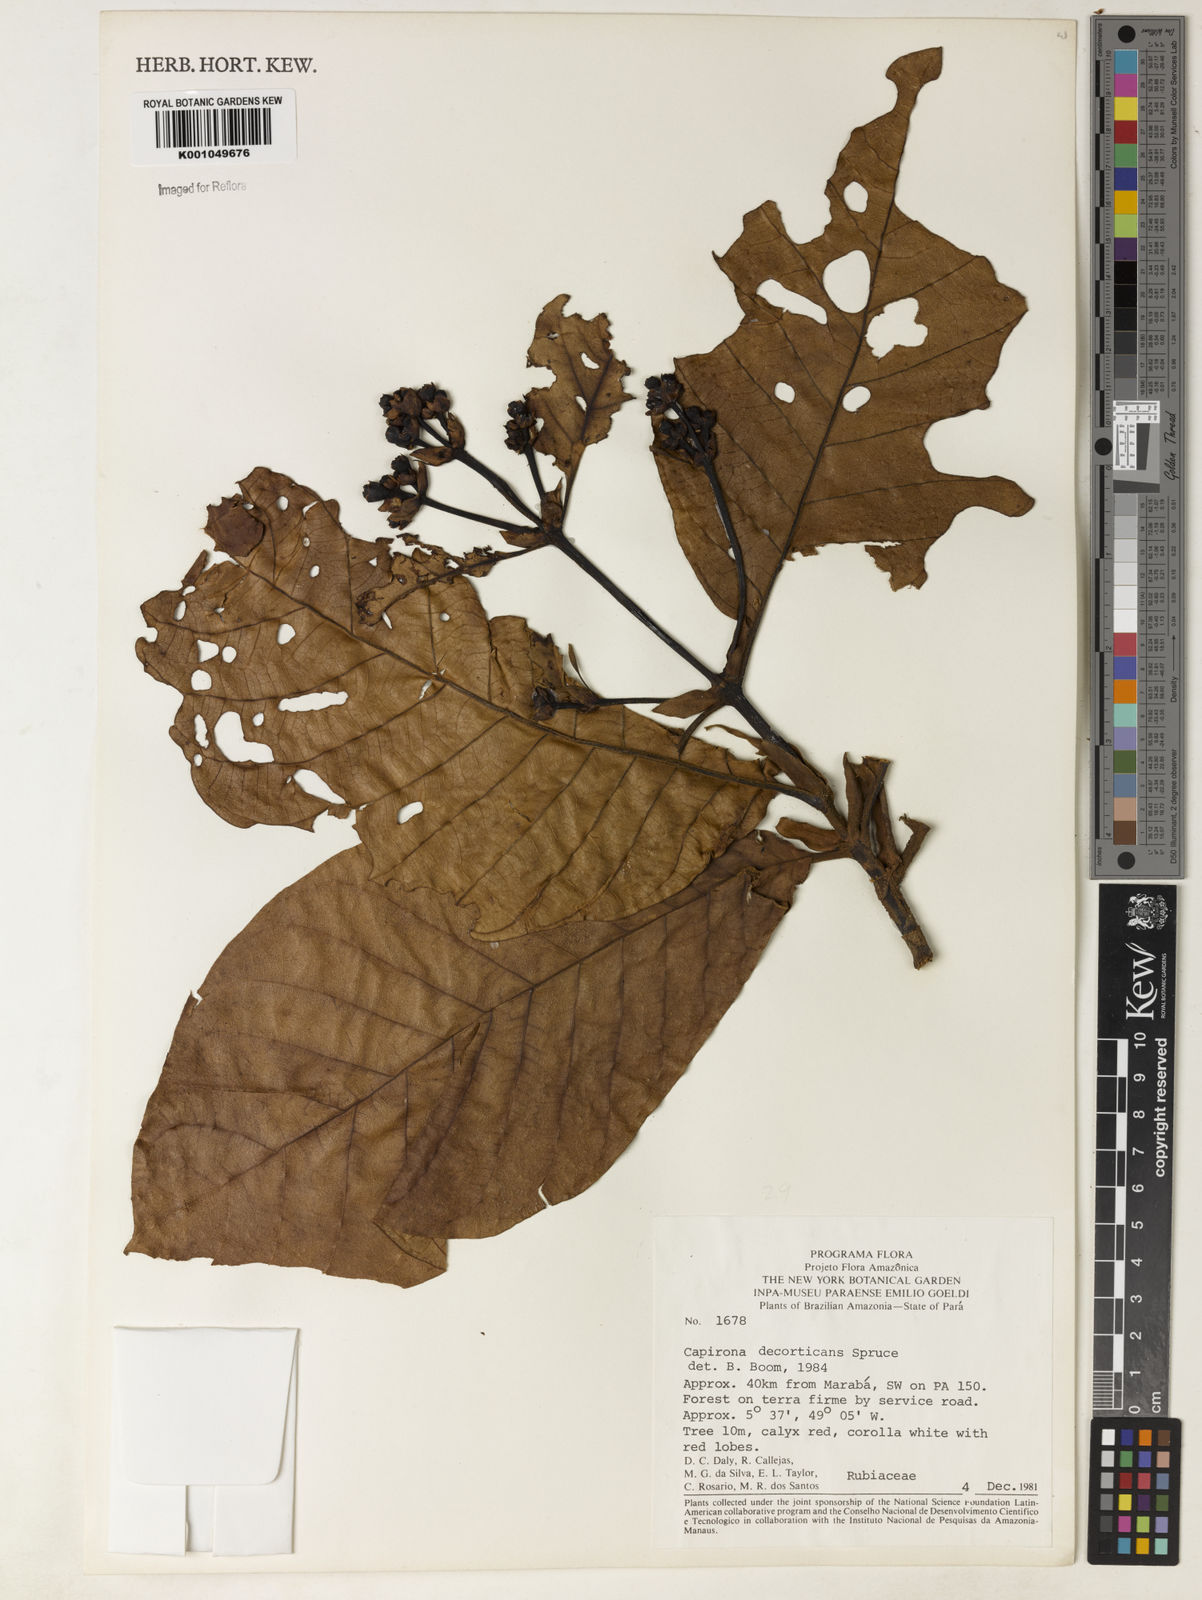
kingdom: Plantae
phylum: Tracheophyta
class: Magnoliopsida
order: Gentianales
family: Rubiaceae
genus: Capirona
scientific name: Capirona macrophylla
